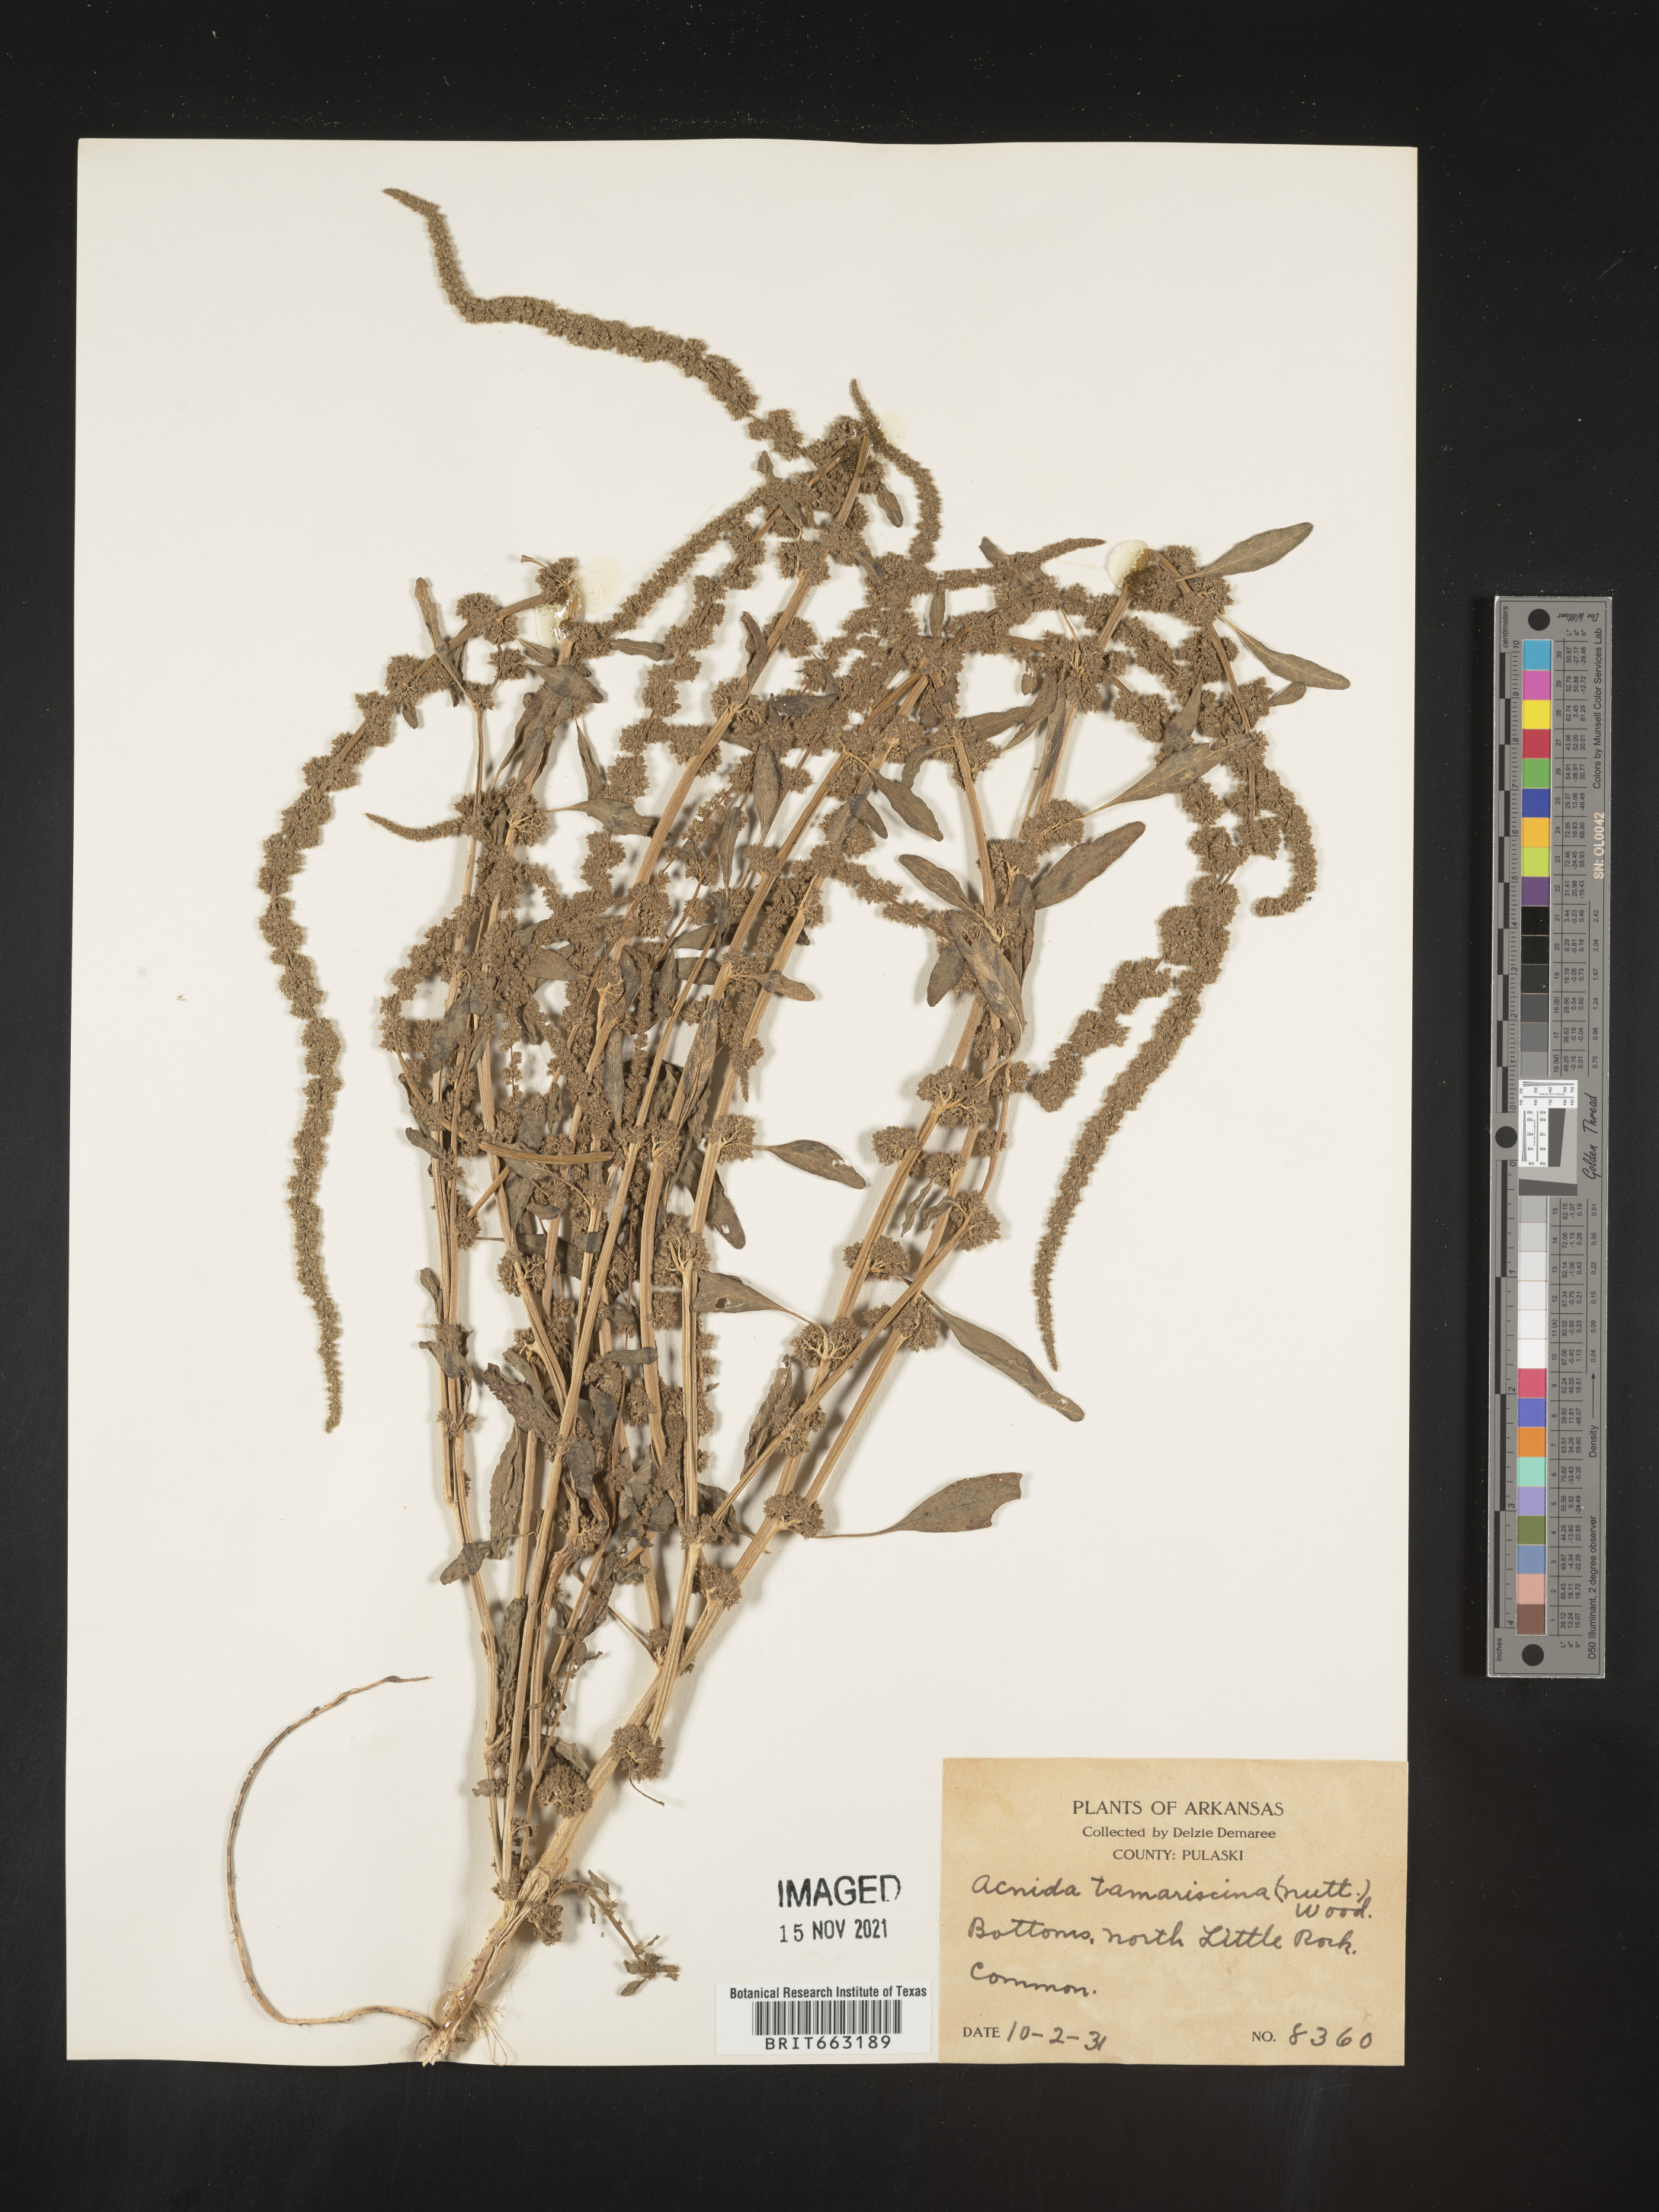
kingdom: Plantae
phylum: Tracheophyta
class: Magnoliopsida
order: Caryophyllales
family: Amaranthaceae
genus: Amaranthus
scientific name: Amaranthus tamariscinus
